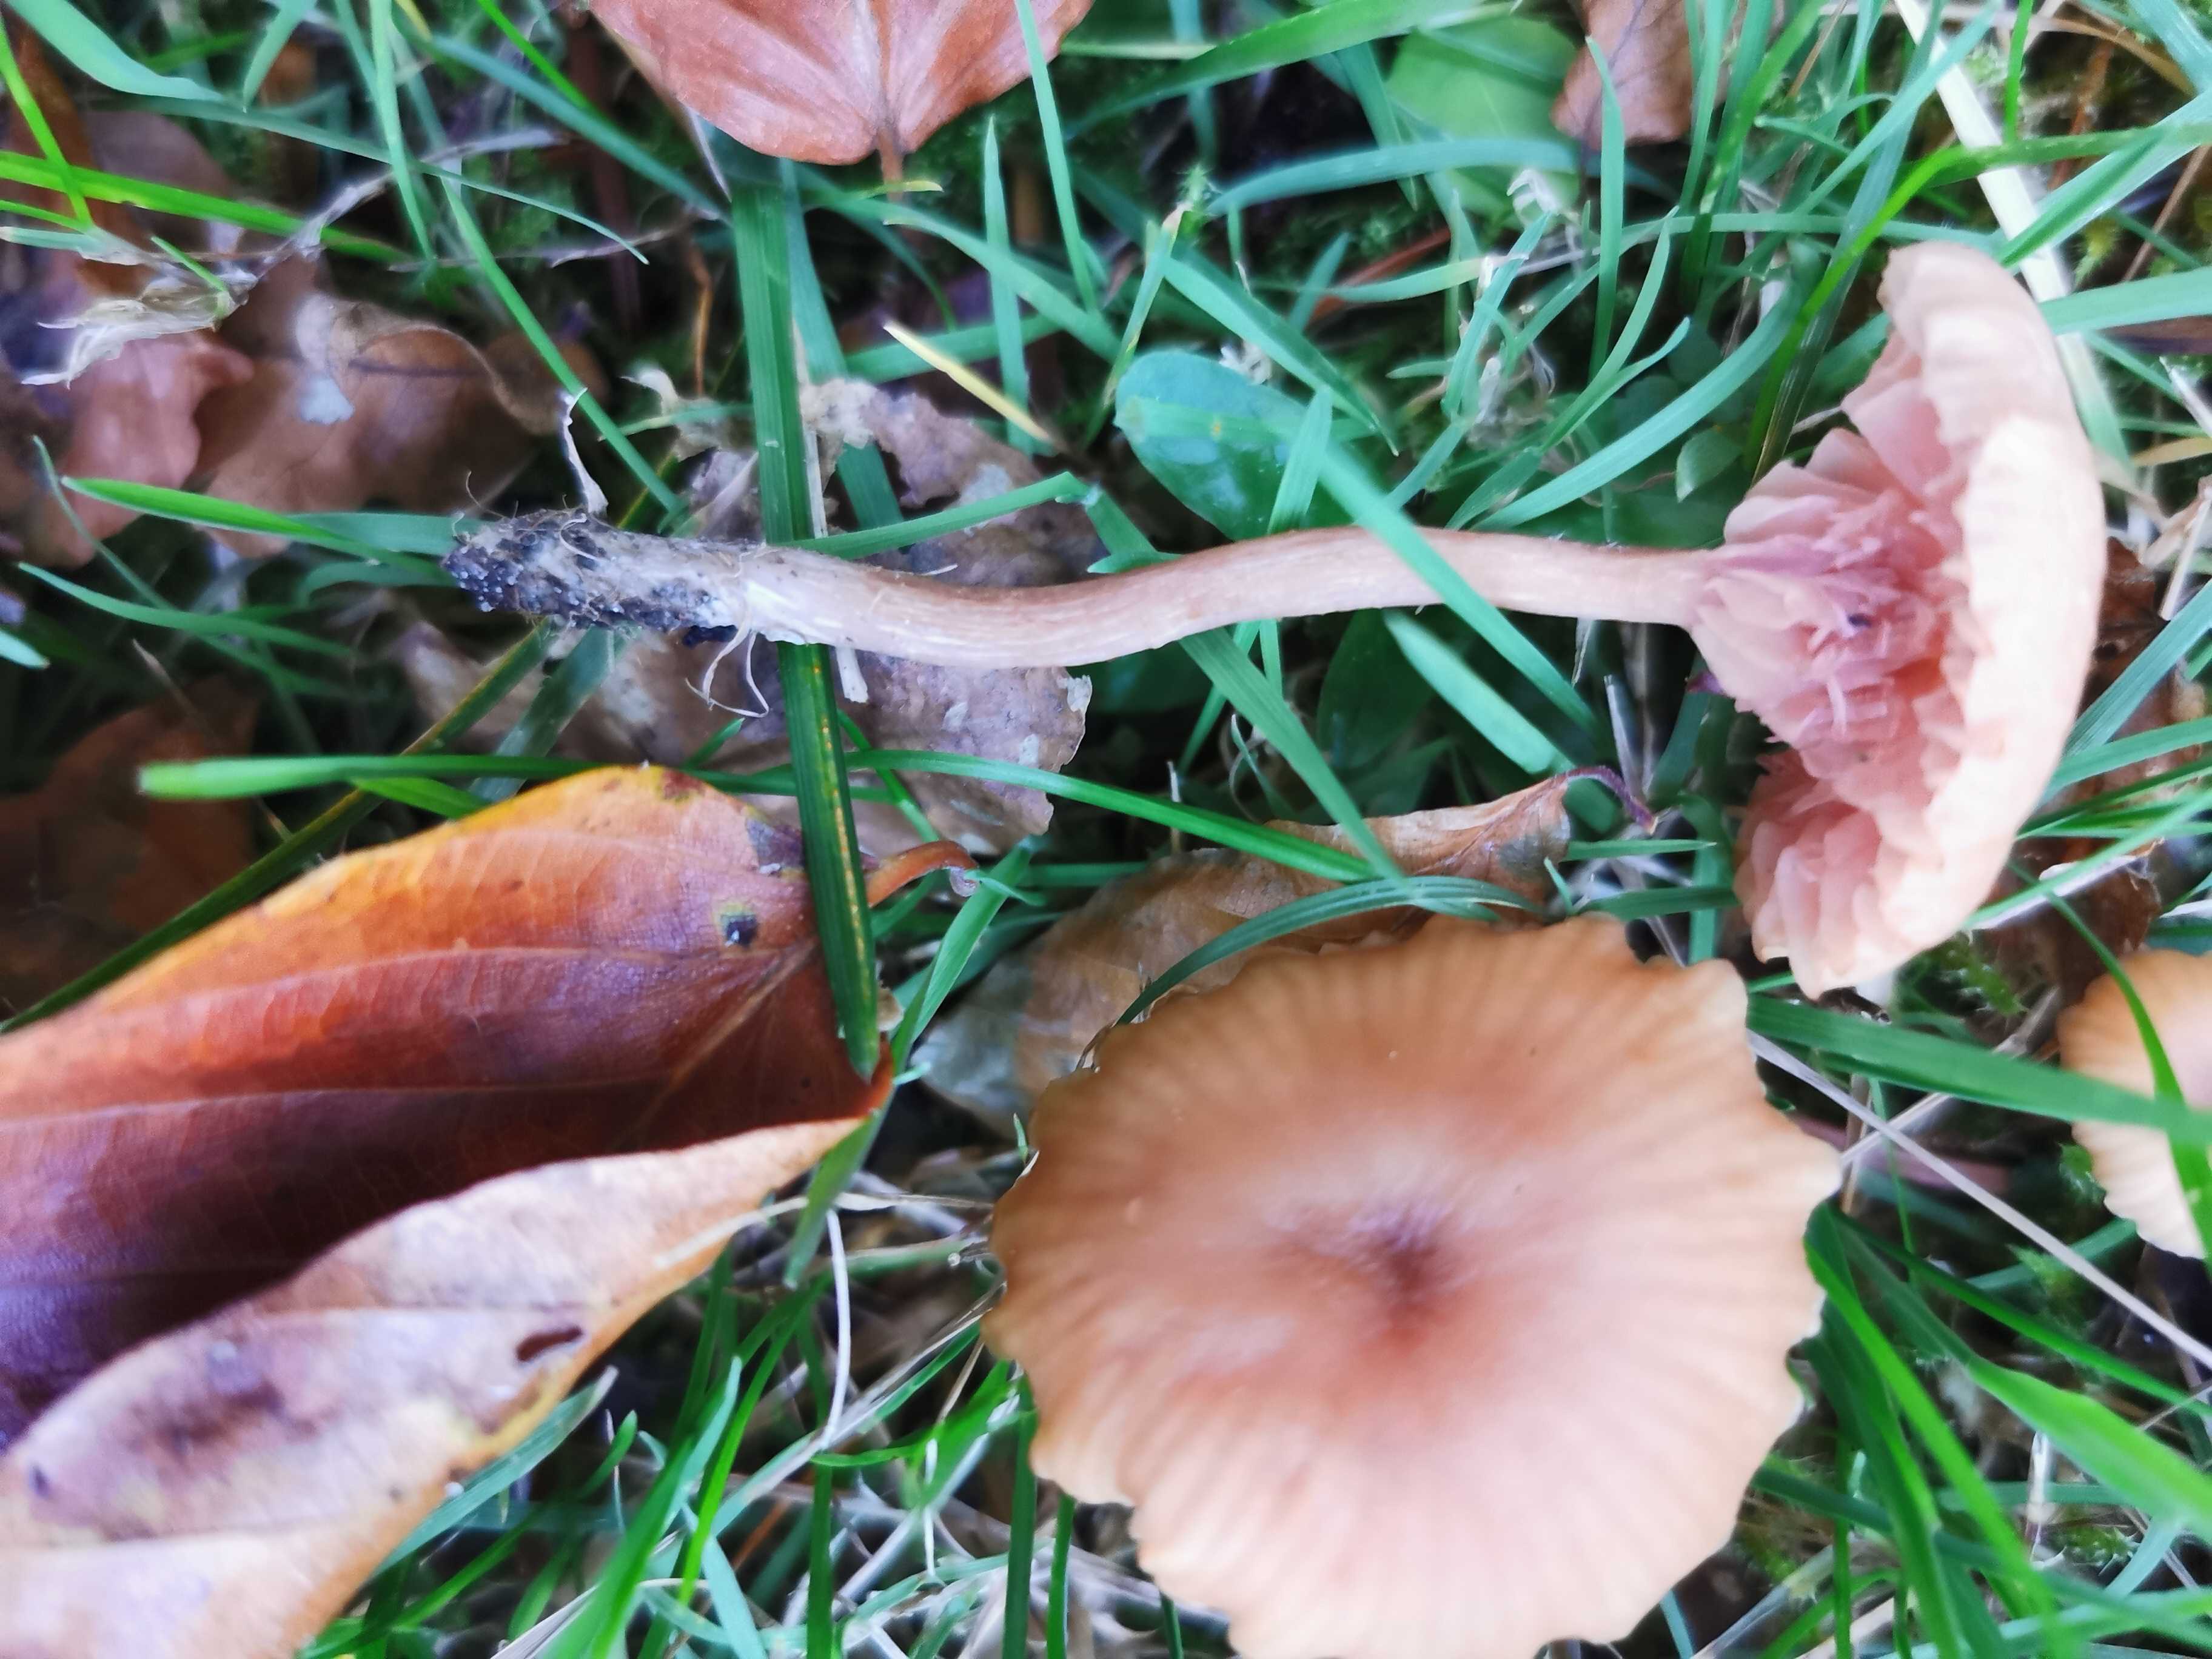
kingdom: Fungi
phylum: Basidiomycota
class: Agaricomycetes
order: Agaricales
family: Hydnangiaceae
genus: Laccaria
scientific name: Laccaria laccata
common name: rød ametysthat
